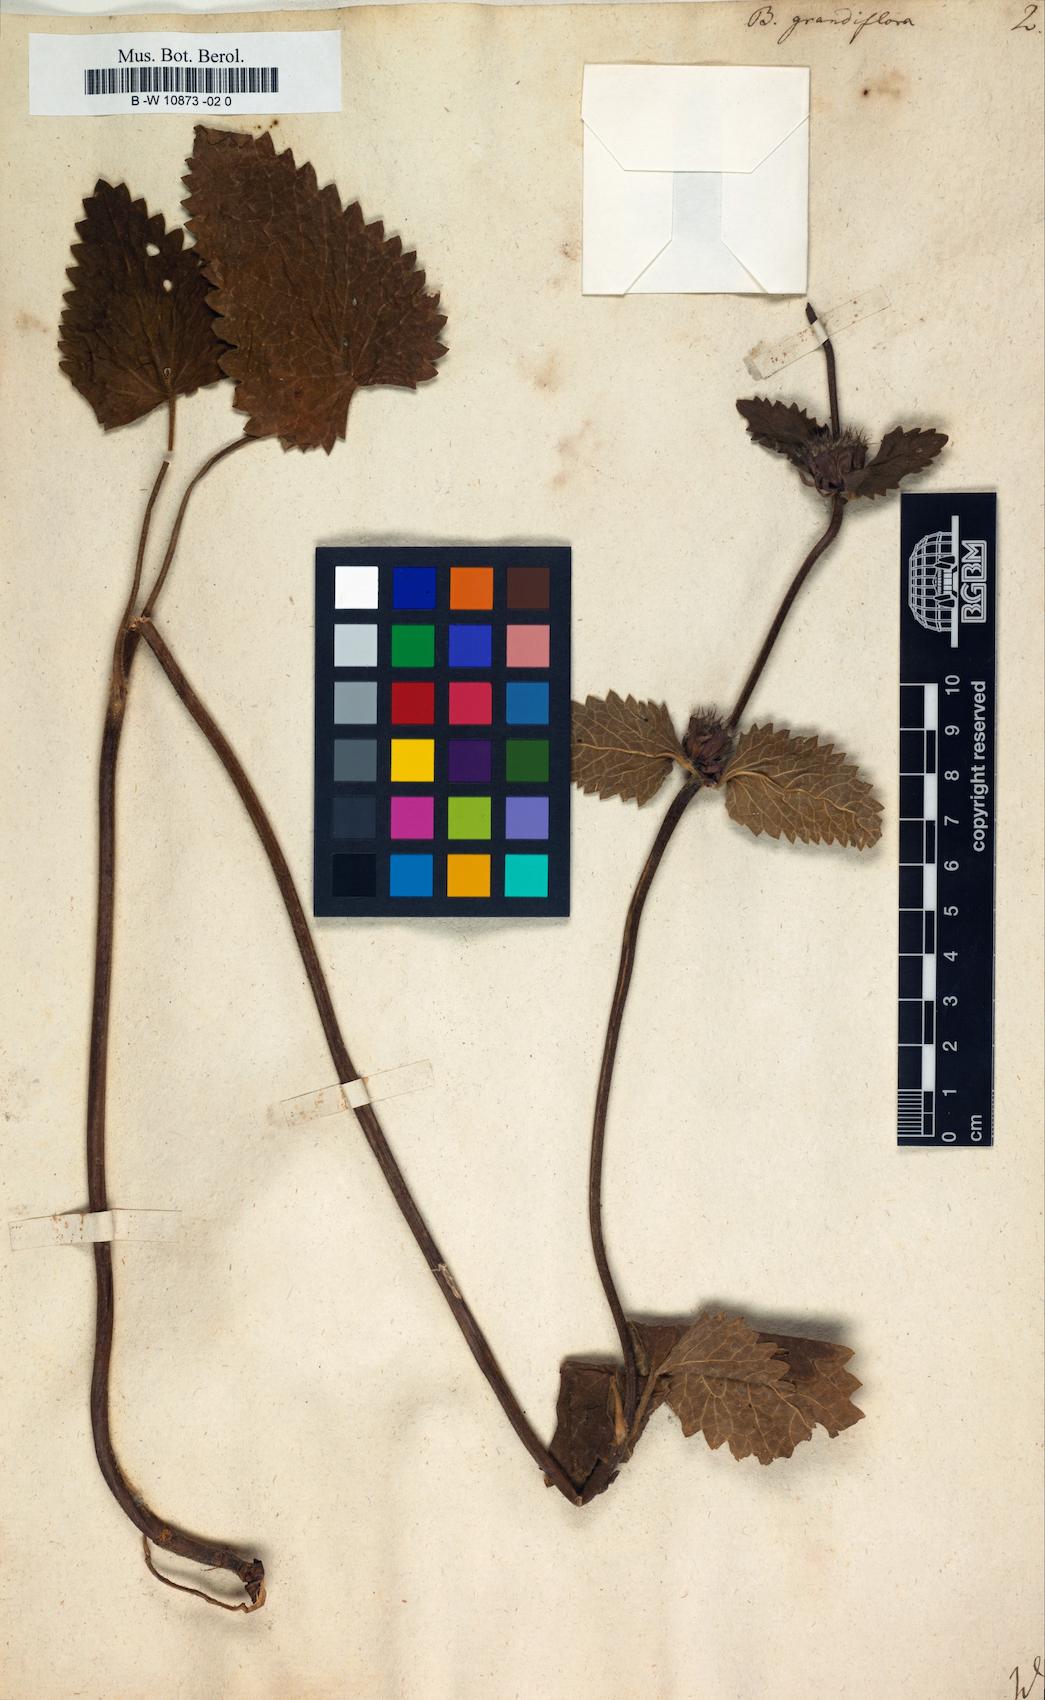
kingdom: Plantae
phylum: Tracheophyta
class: Magnoliopsida
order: Lamiales
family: Lamiaceae
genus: Betonica
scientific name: Betonica
